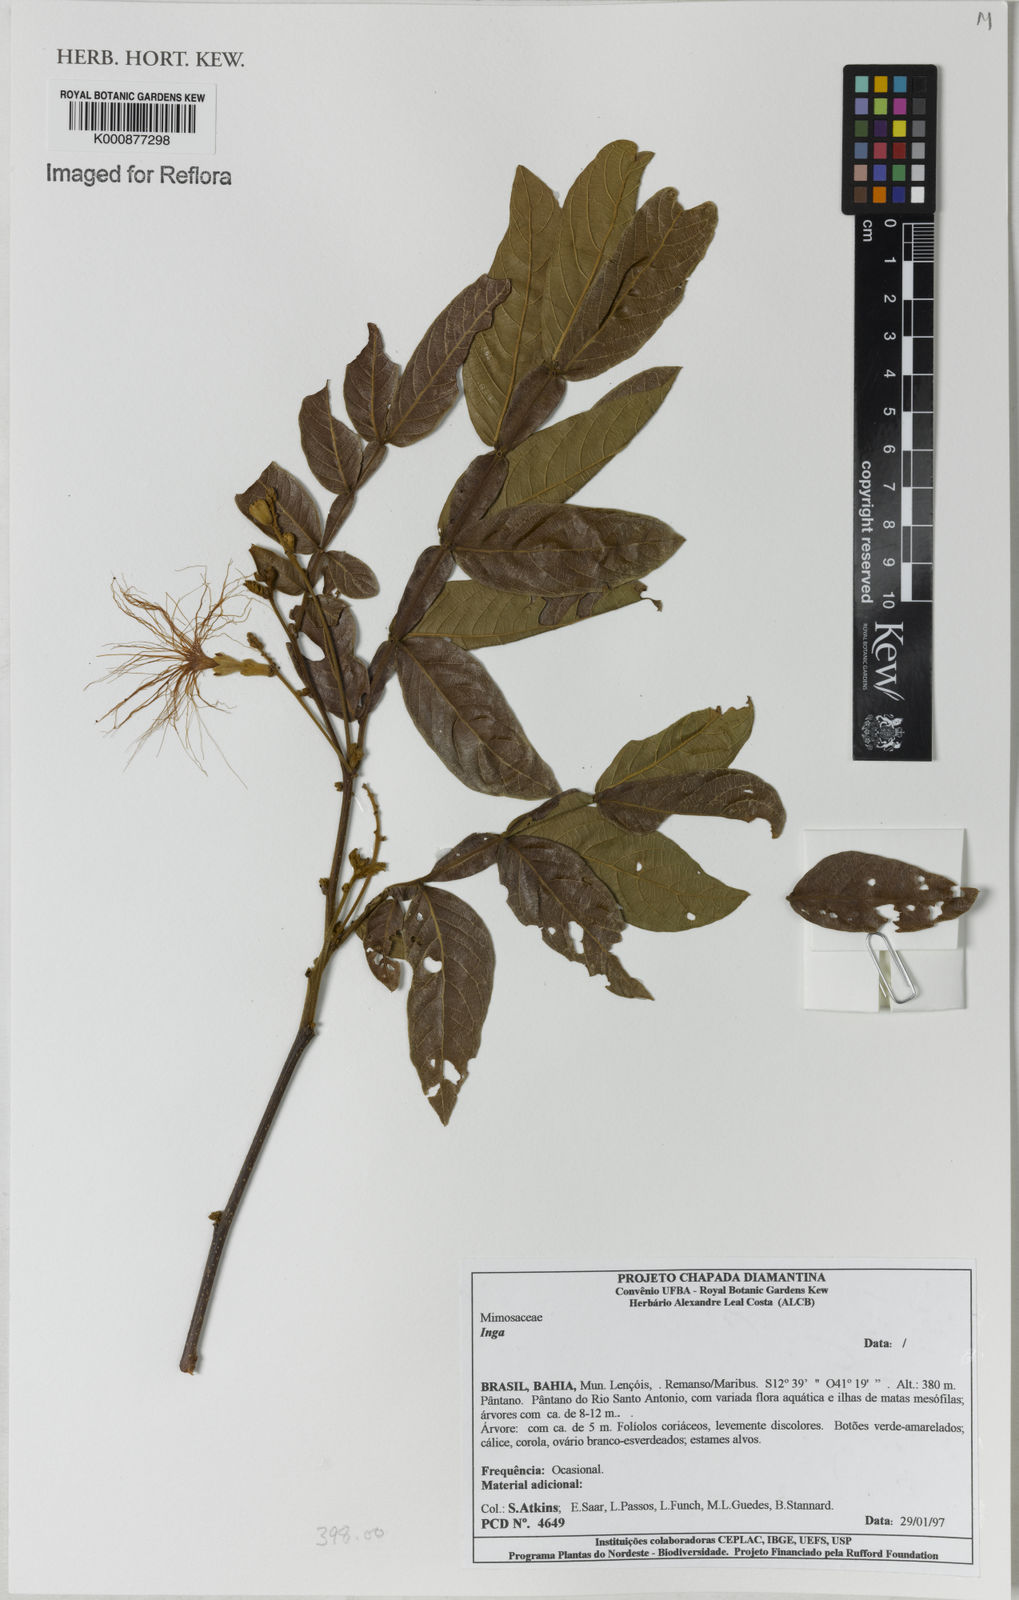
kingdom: Plantae
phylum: Tracheophyta
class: Magnoliopsida
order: Fabales
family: Fabaceae
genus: Inga
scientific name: Inga
